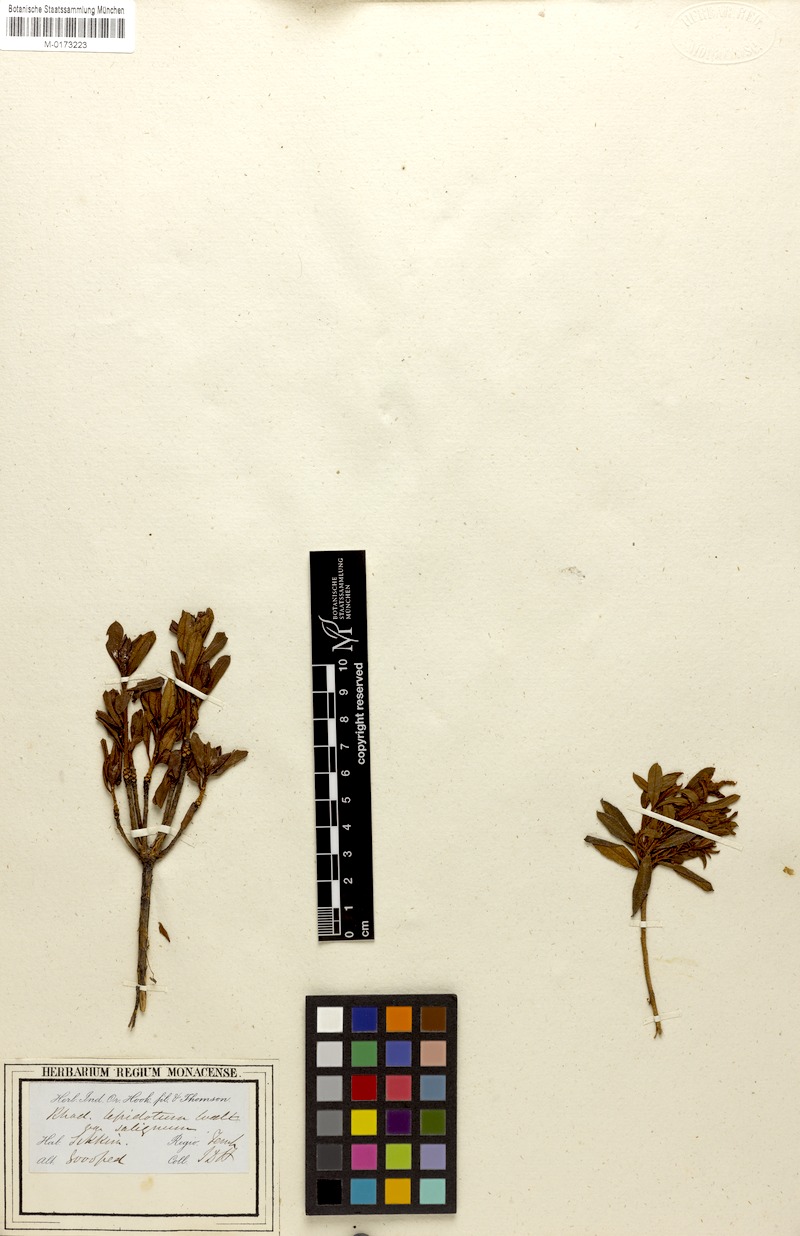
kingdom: Plantae
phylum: Tracheophyta
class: Magnoliopsida
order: Ericales
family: Ericaceae
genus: Rhododendron
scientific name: Rhododendron lepidotum
